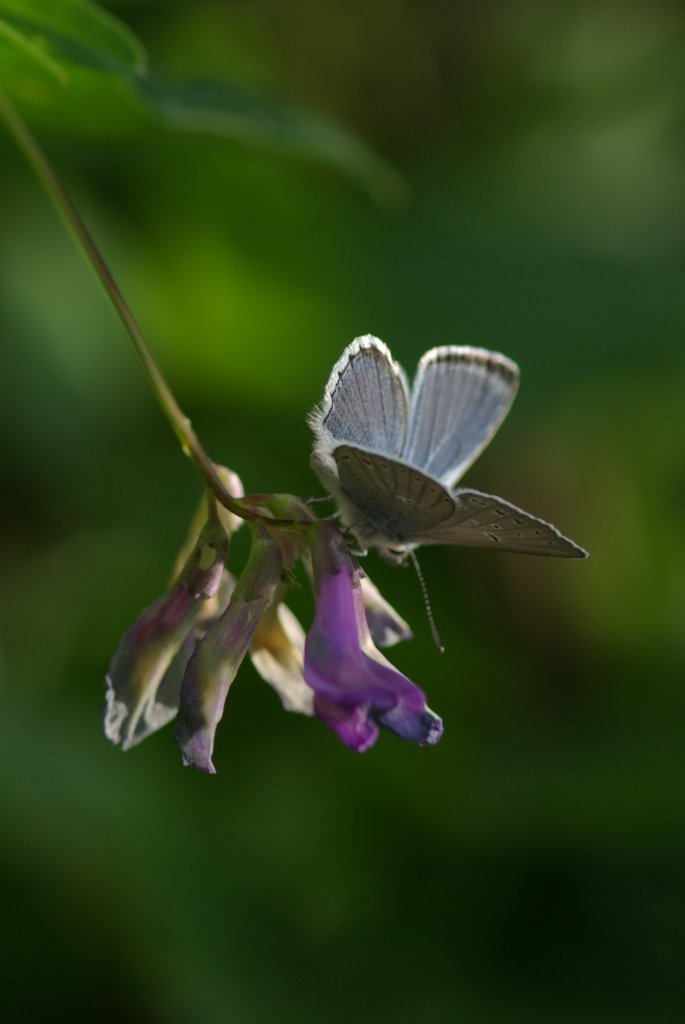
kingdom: Animalia
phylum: Arthropoda
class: Insecta
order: Lepidoptera
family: Lycaenidae
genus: Plebejus
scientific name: Plebejus saepiolus
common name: Greenish Blue
